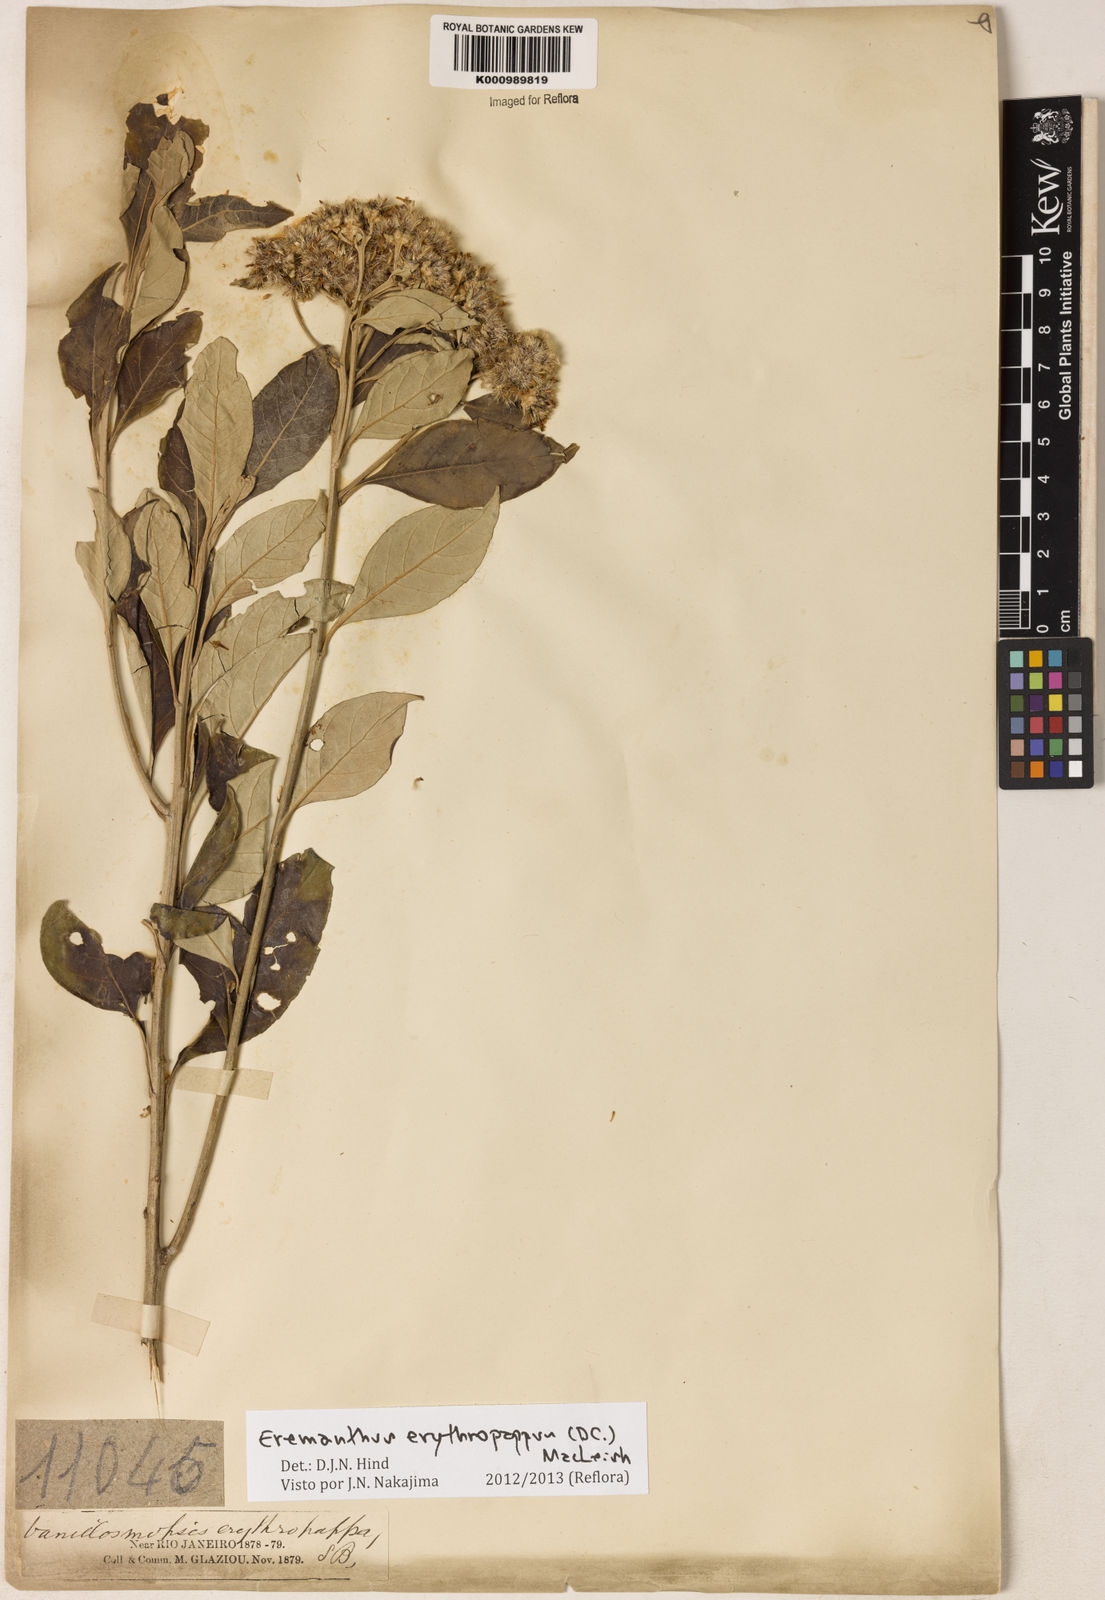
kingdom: Plantae
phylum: Tracheophyta
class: Magnoliopsida
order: Asterales
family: Asteraceae
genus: Eremanthus
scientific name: Eremanthus erythropappus
